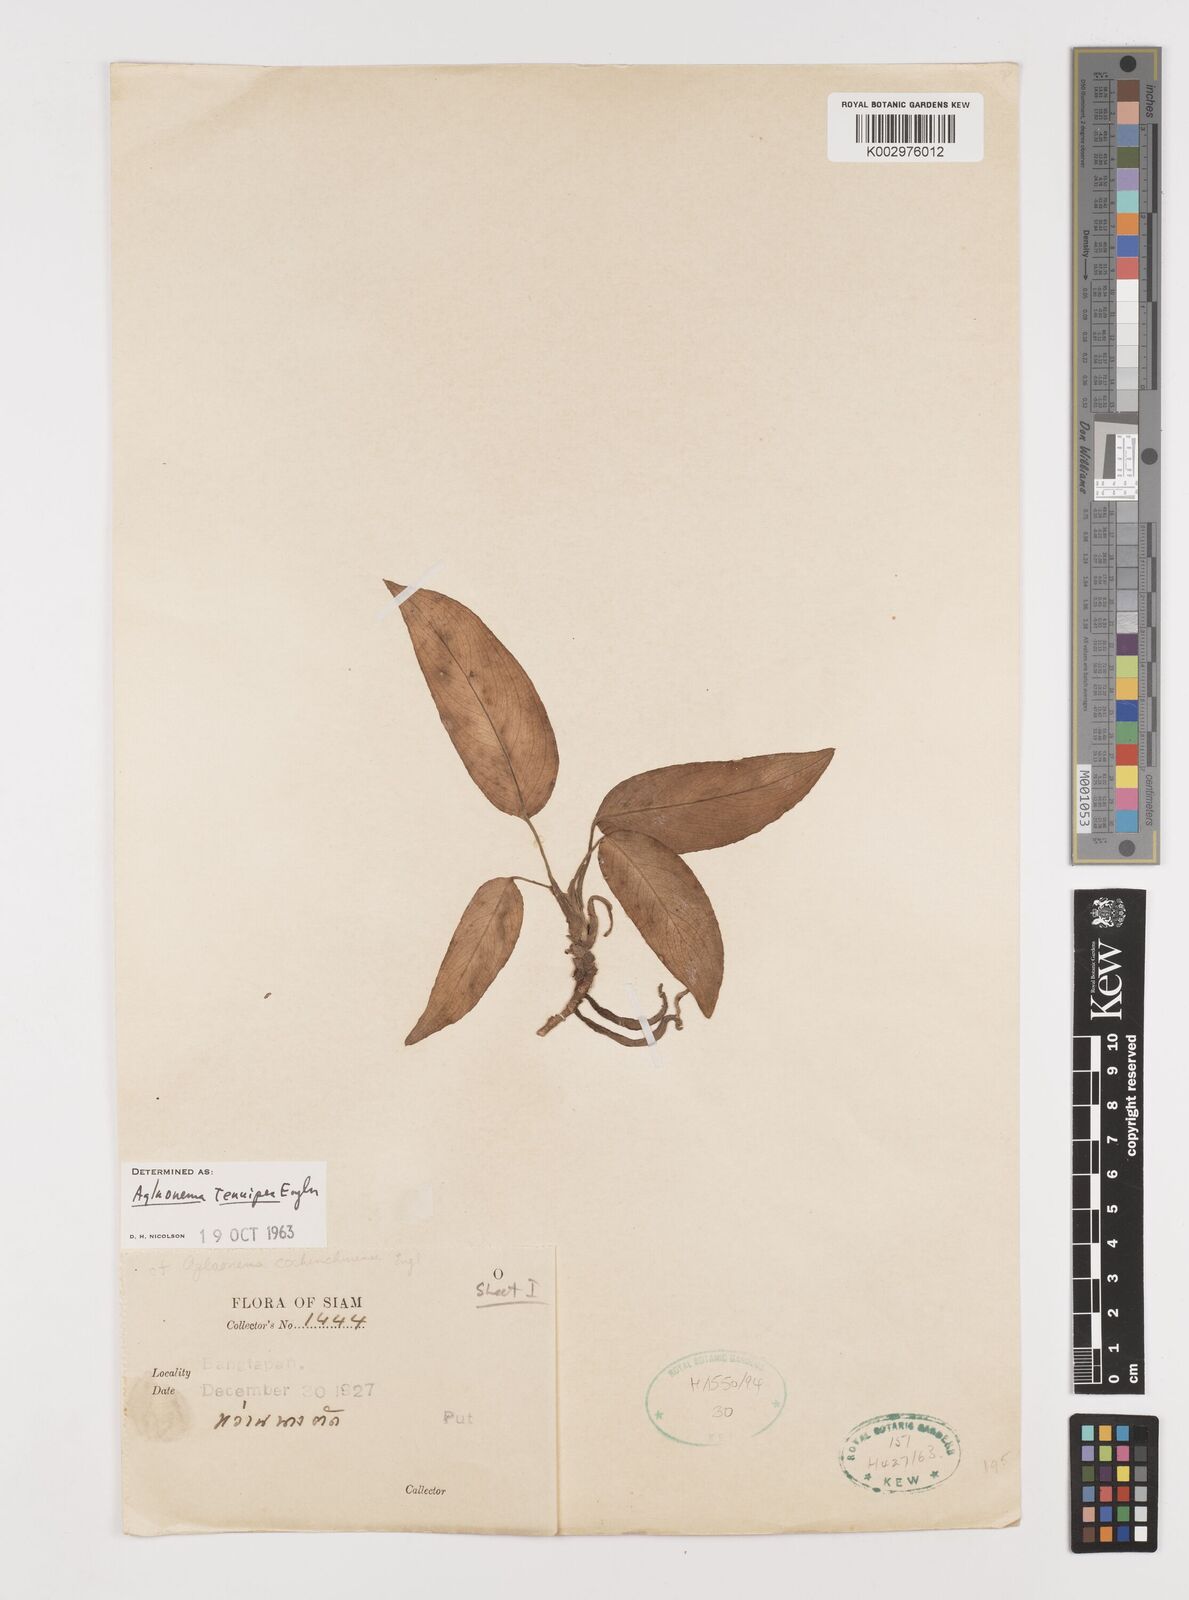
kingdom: Plantae
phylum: Tracheophyta
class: Liliopsida
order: Alismatales
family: Araceae
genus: Aglaonema
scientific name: Aglaonema simplex
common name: Malayan-sword
